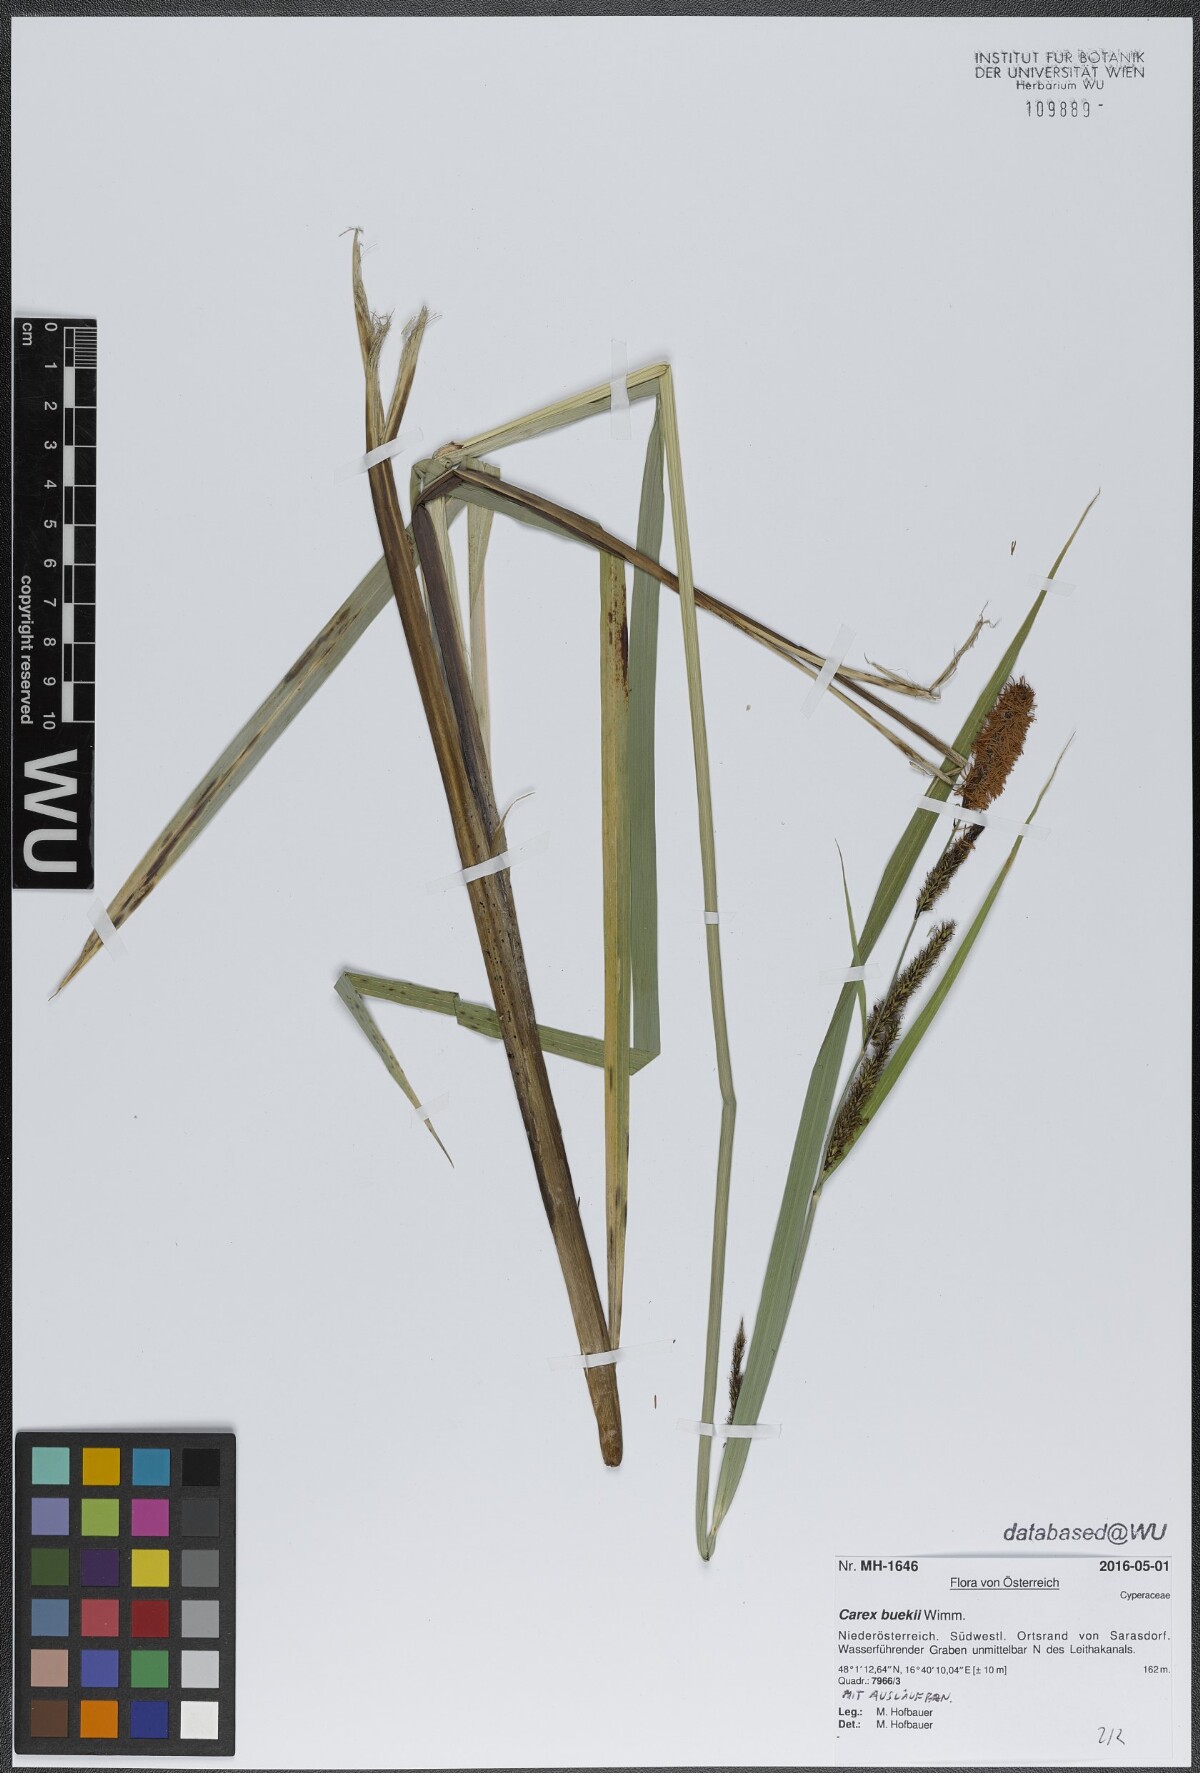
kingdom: Plantae
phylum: Tracheophyta
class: Liliopsida
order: Poales
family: Cyperaceae
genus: Carex
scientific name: Carex buekii
